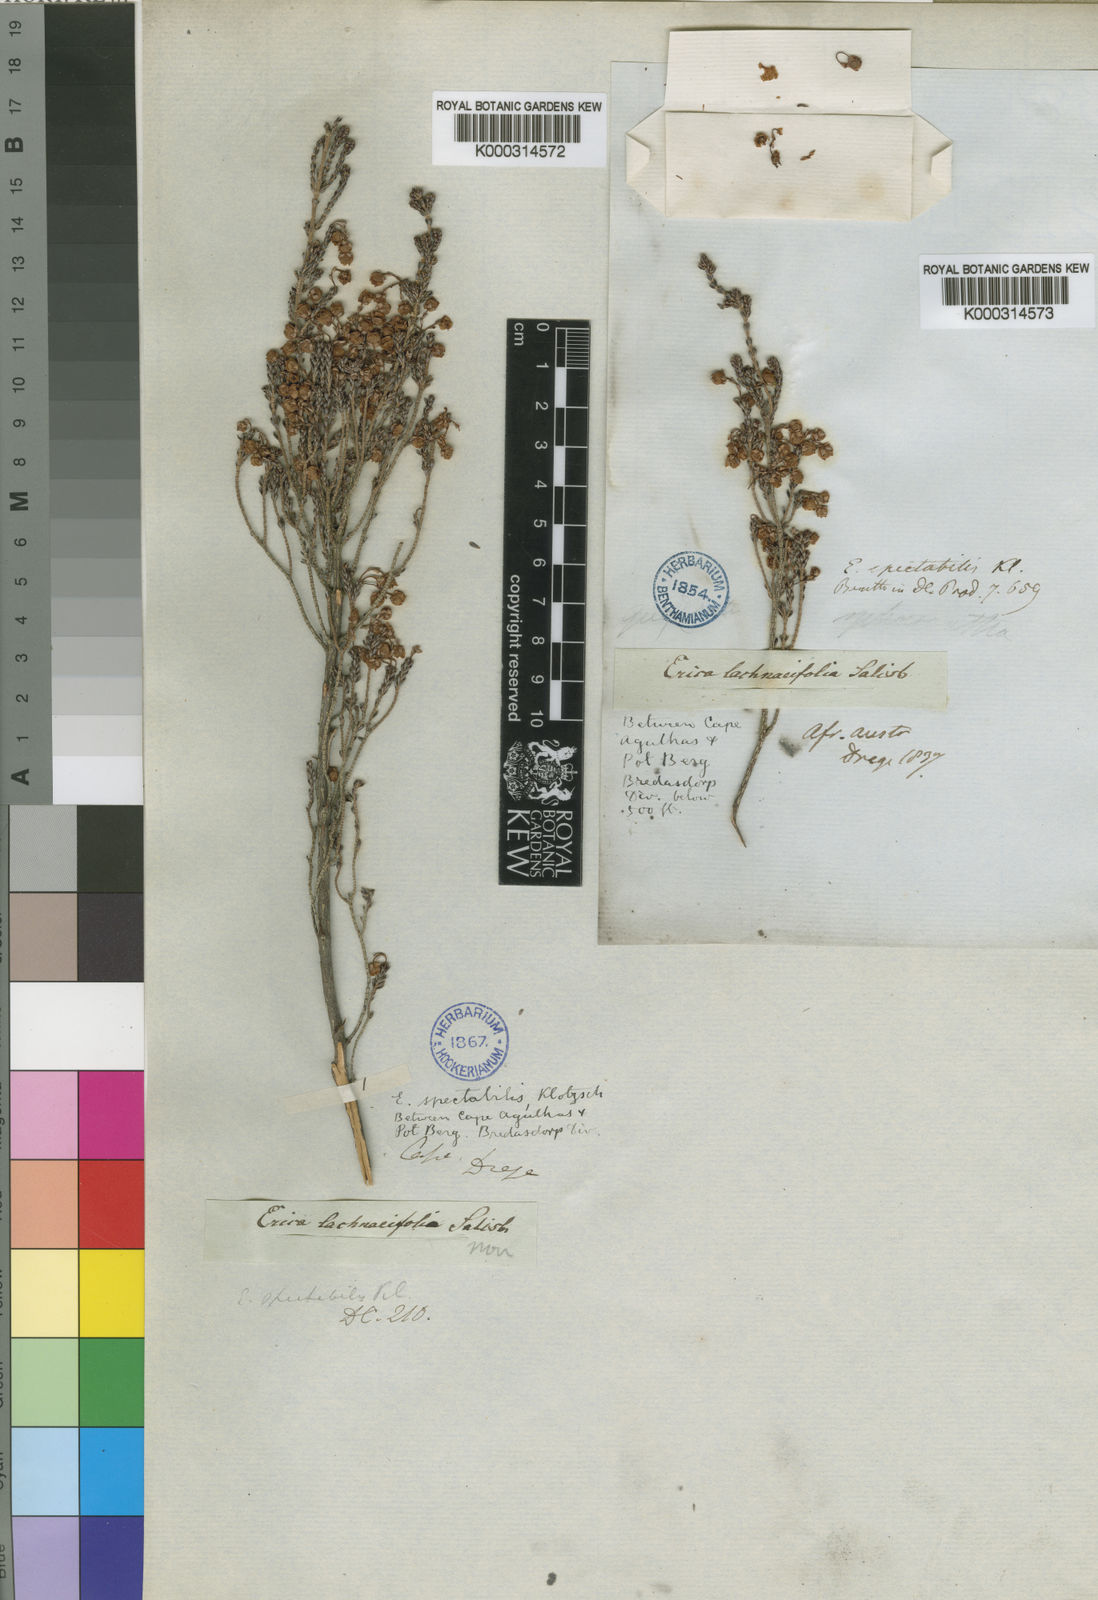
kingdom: Plantae
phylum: Tracheophyta
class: Magnoliopsida
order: Ericales
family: Ericaceae
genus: Erica
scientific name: Erica spectabilis
